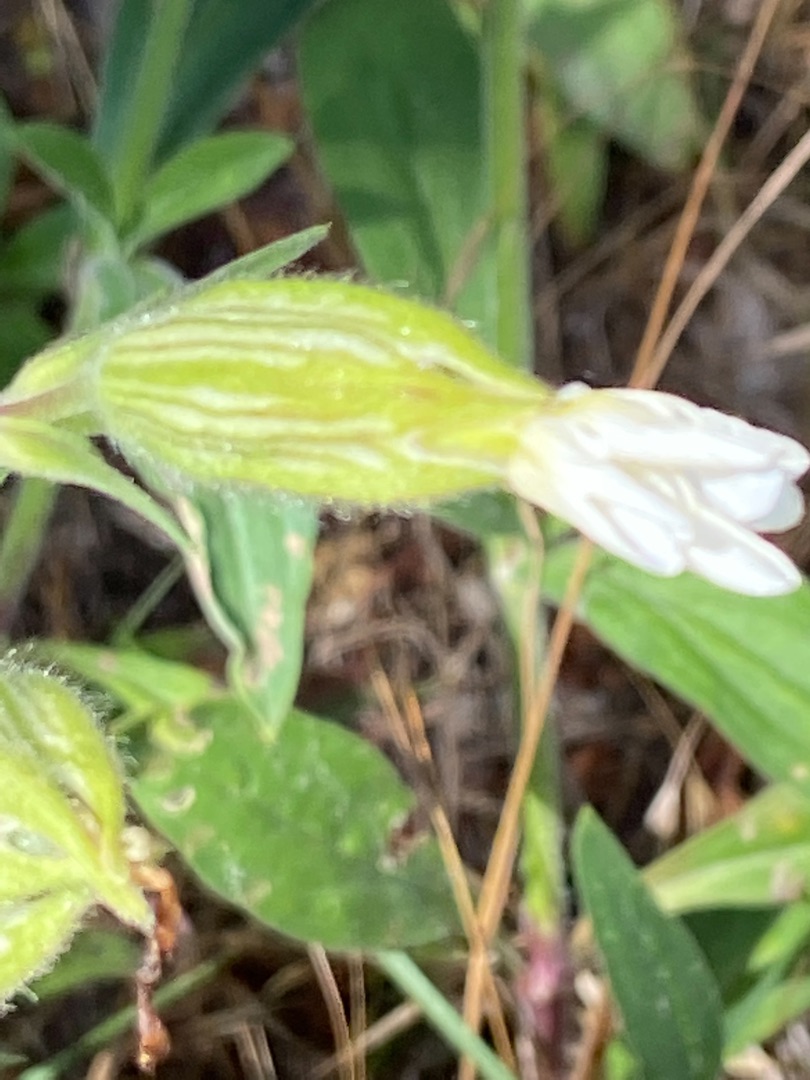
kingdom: Plantae
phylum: Tracheophyta
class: Magnoliopsida
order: Caryophyllales
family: Caryophyllaceae
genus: Silene
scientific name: Silene latifolia
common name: Aftenpragtstjerne
